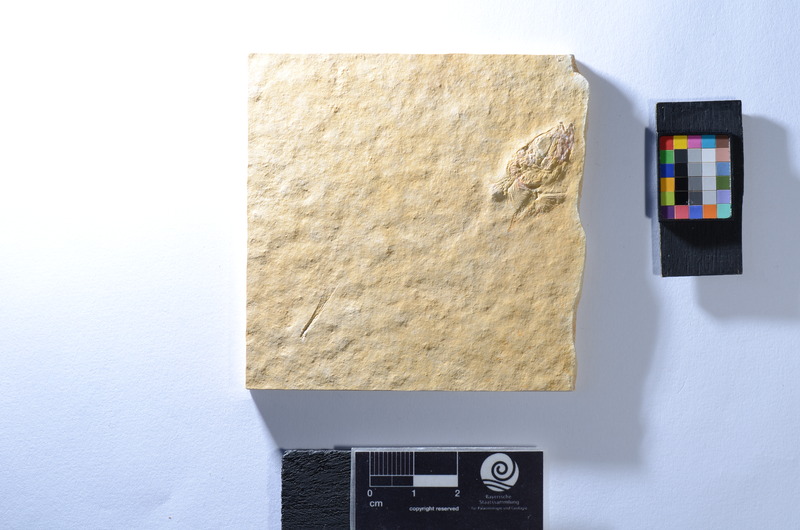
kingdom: Animalia
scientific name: Animalia
